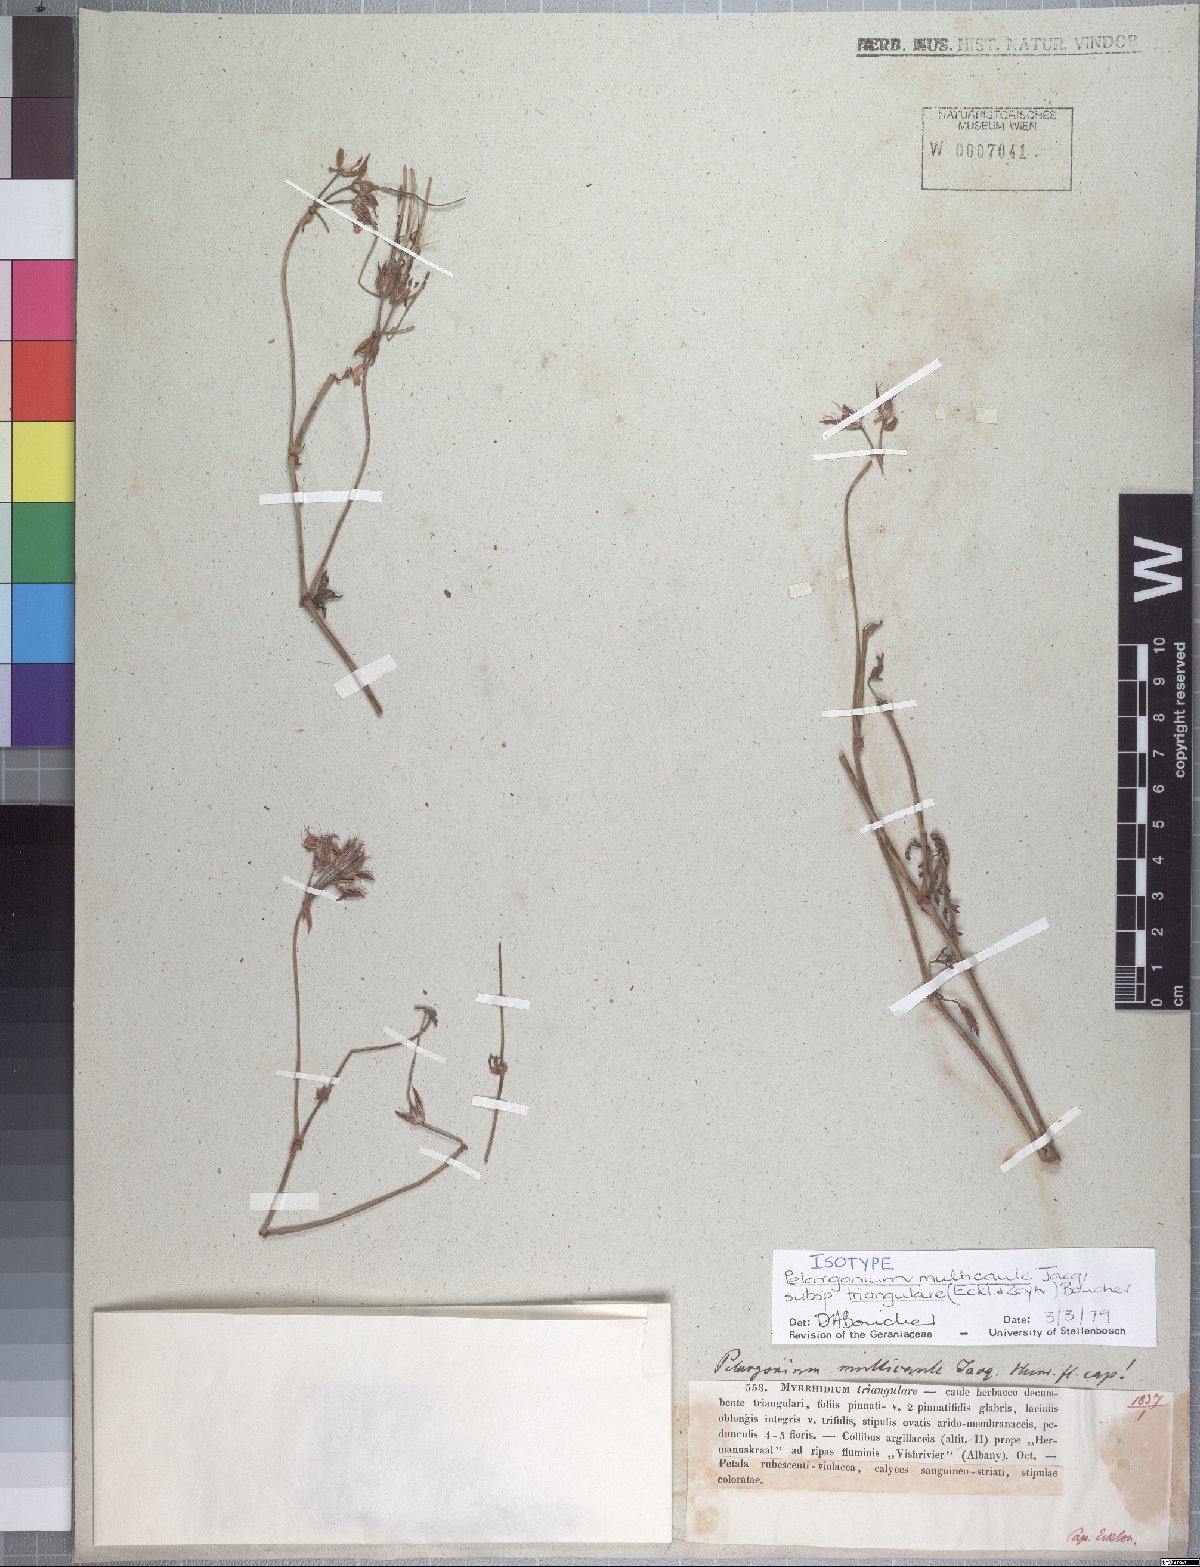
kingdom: Plantae
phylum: Tracheophyta
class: Magnoliopsida
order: Geraniales
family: Geraniaceae
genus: Pelargonium
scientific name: Pelargonium multicaule
